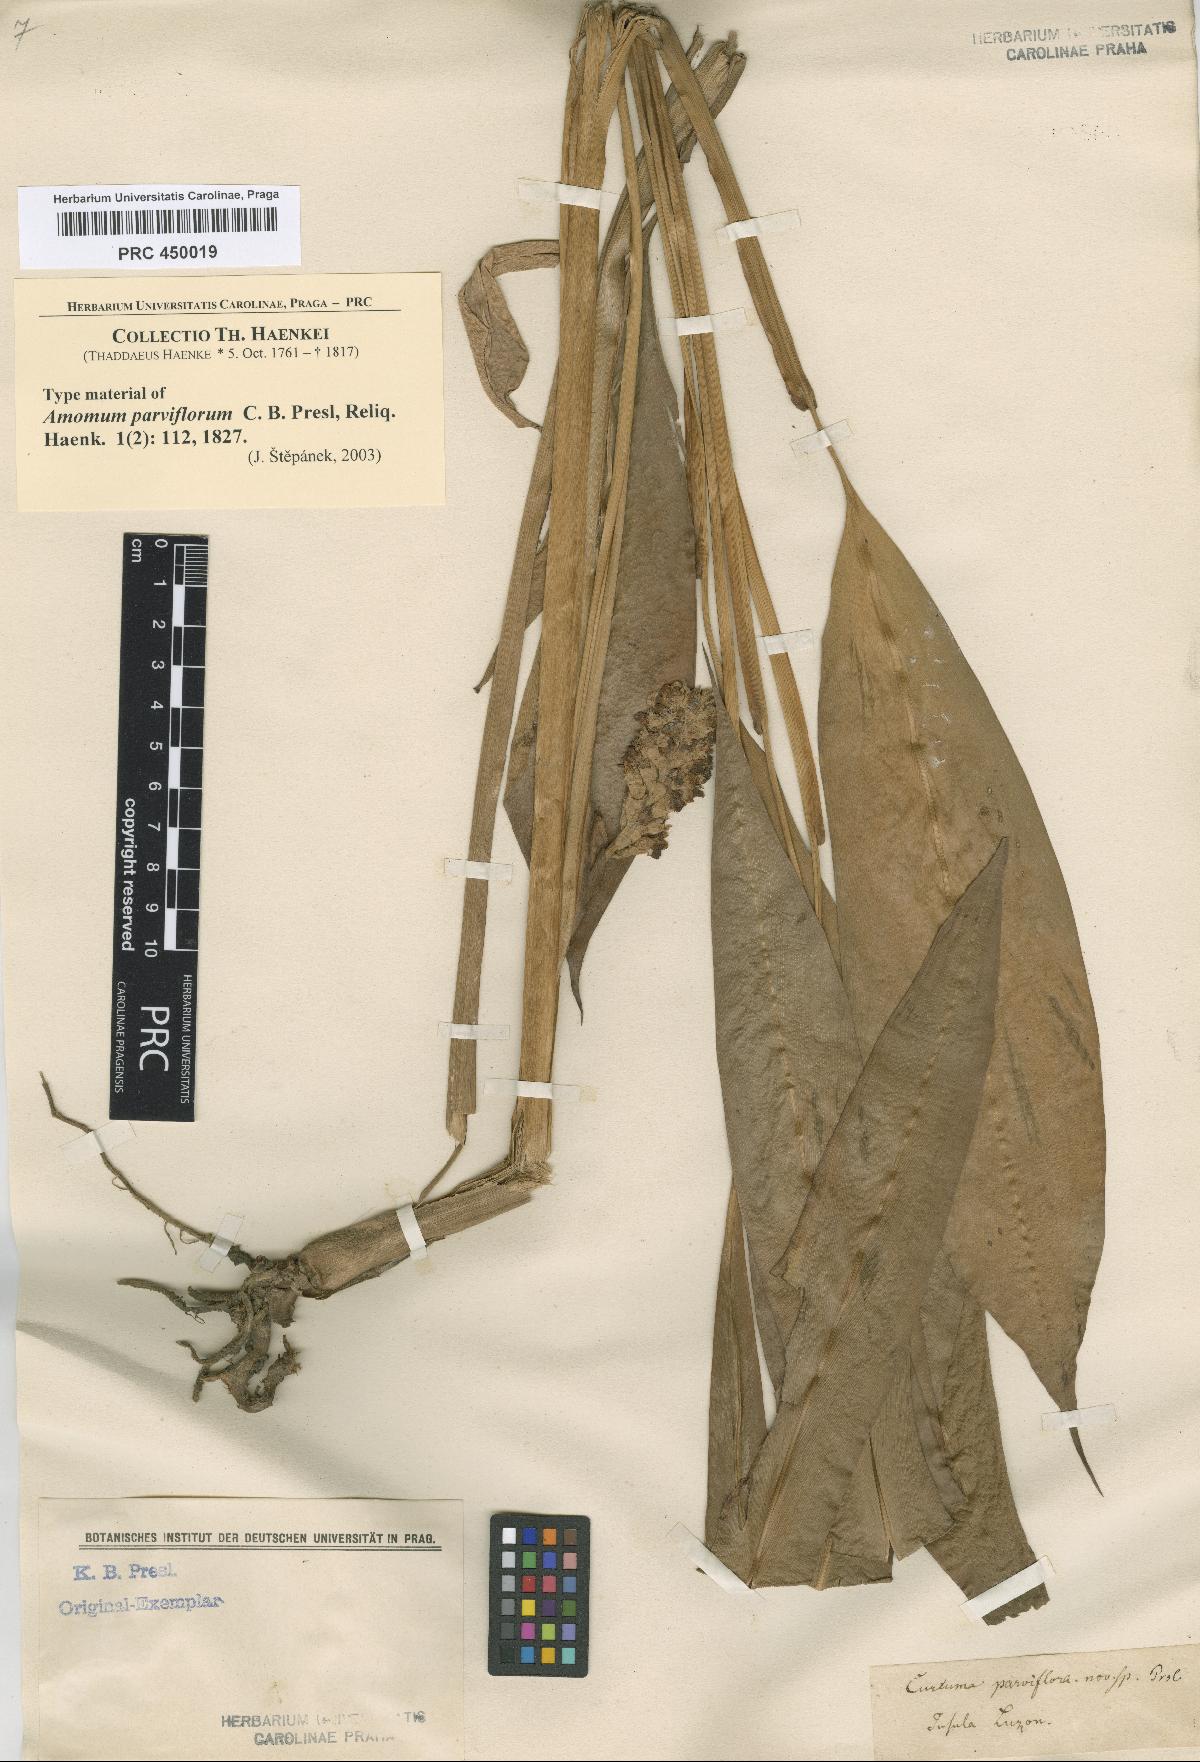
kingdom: Plantae
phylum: Tracheophyta
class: Liliopsida
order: Zingiberales
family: Zingiberaceae
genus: Plagiostachys
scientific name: Plagiostachys parviflora
